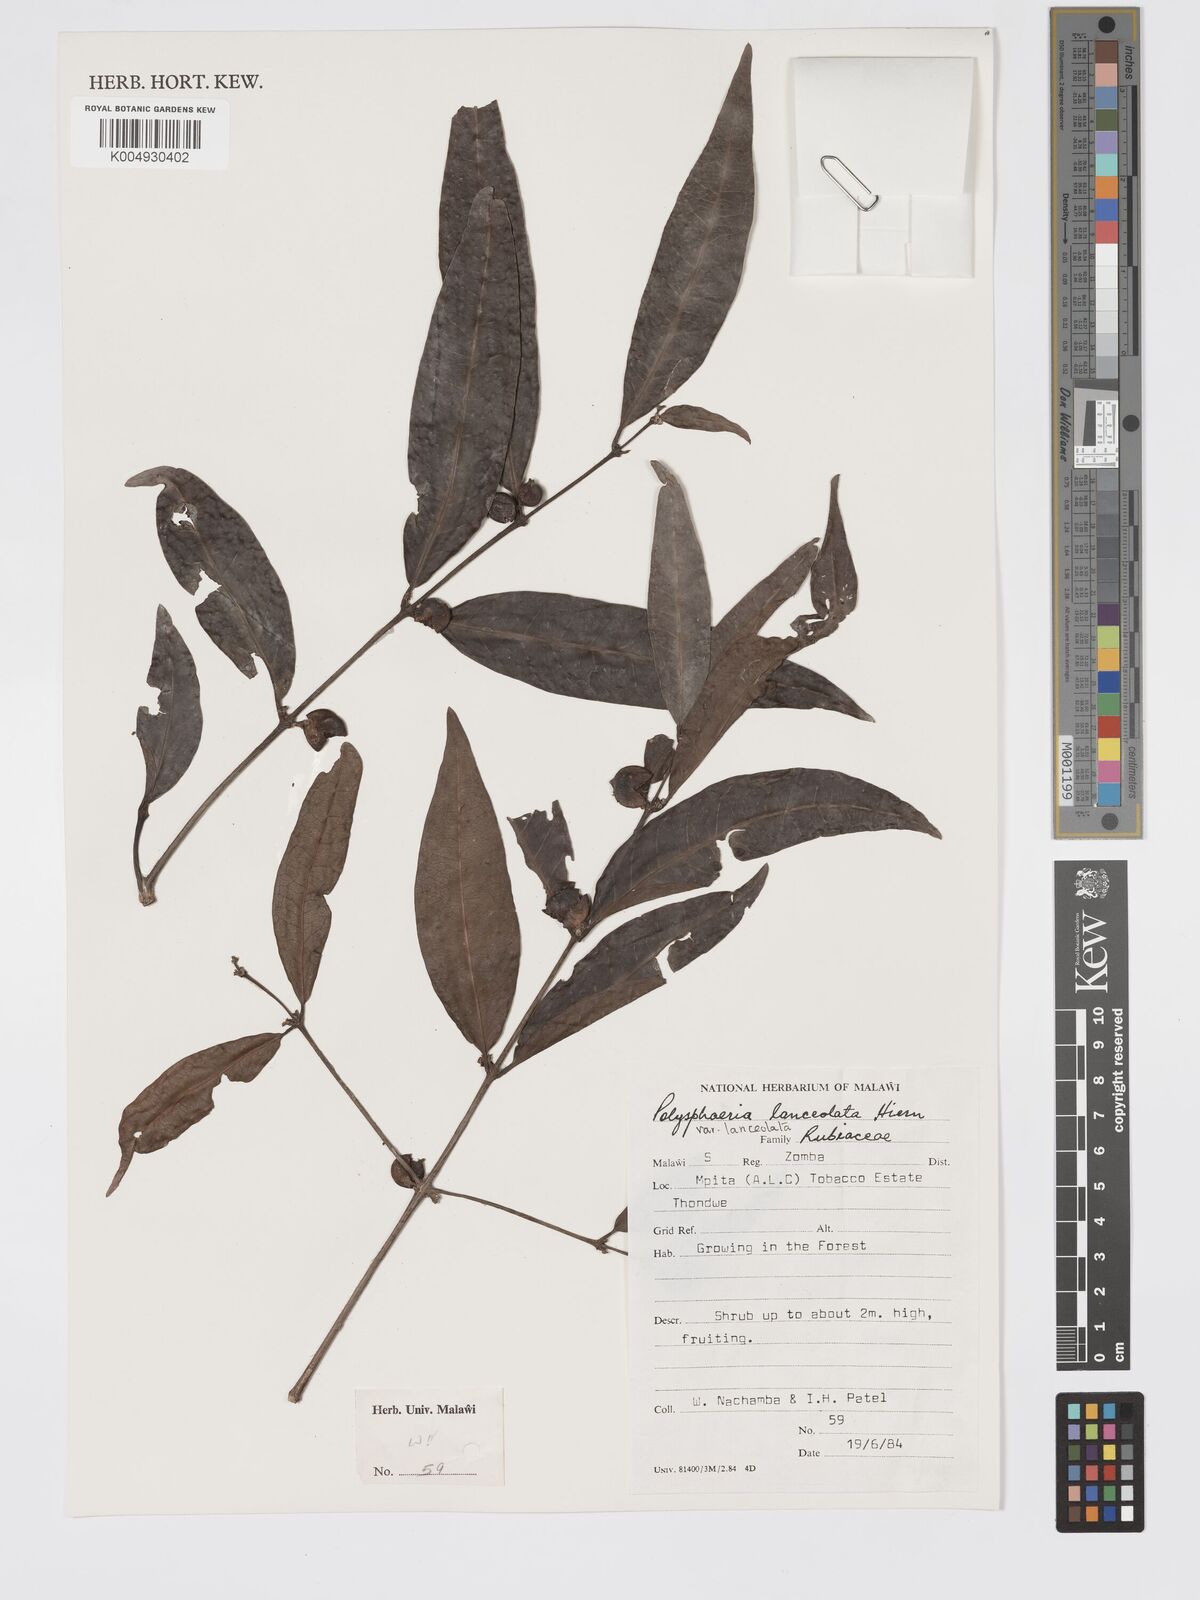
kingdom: Plantae
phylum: Tracheophyta
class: Magnoliopsida
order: Gentianales
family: Rubiaceae
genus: Polysphaeria
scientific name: Polysphaeria lanceolata
